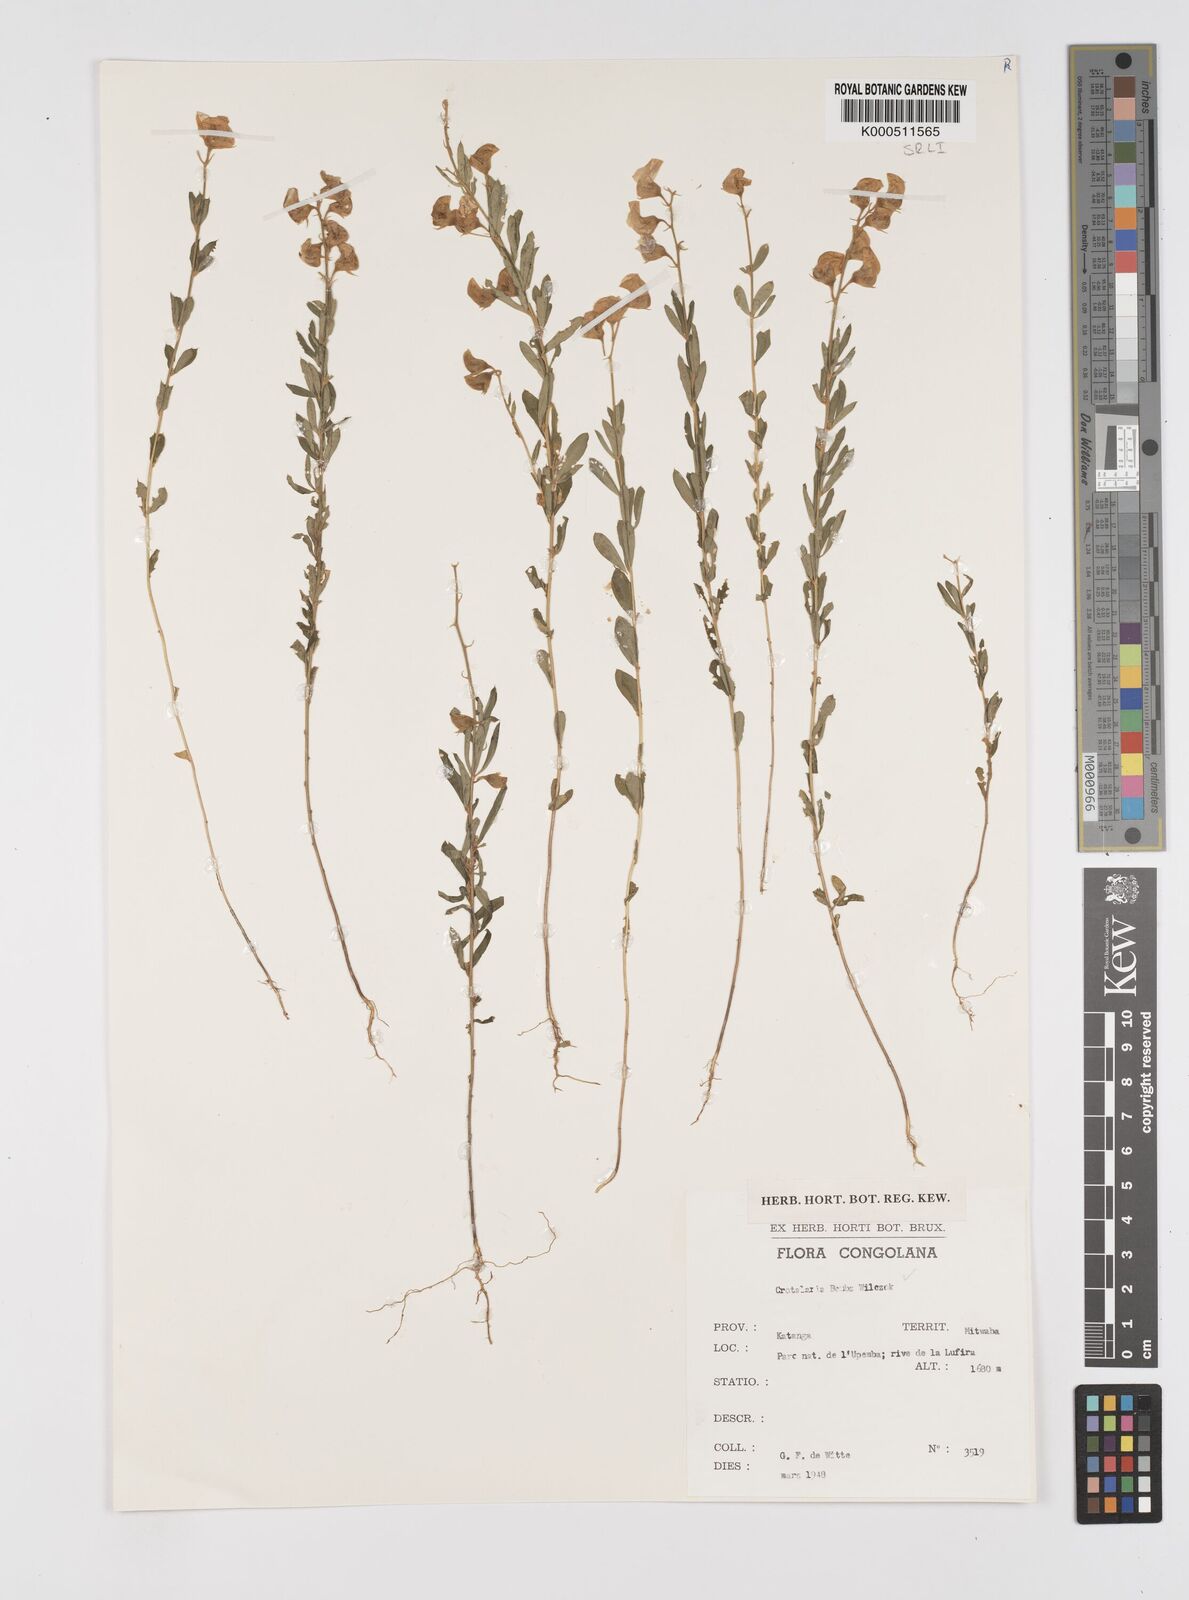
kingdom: Plantae
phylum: Tracheophyta
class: Magnoliopsida
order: Fabales
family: Fabaceae
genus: Crotalaria
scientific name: Crotalaria bemba
